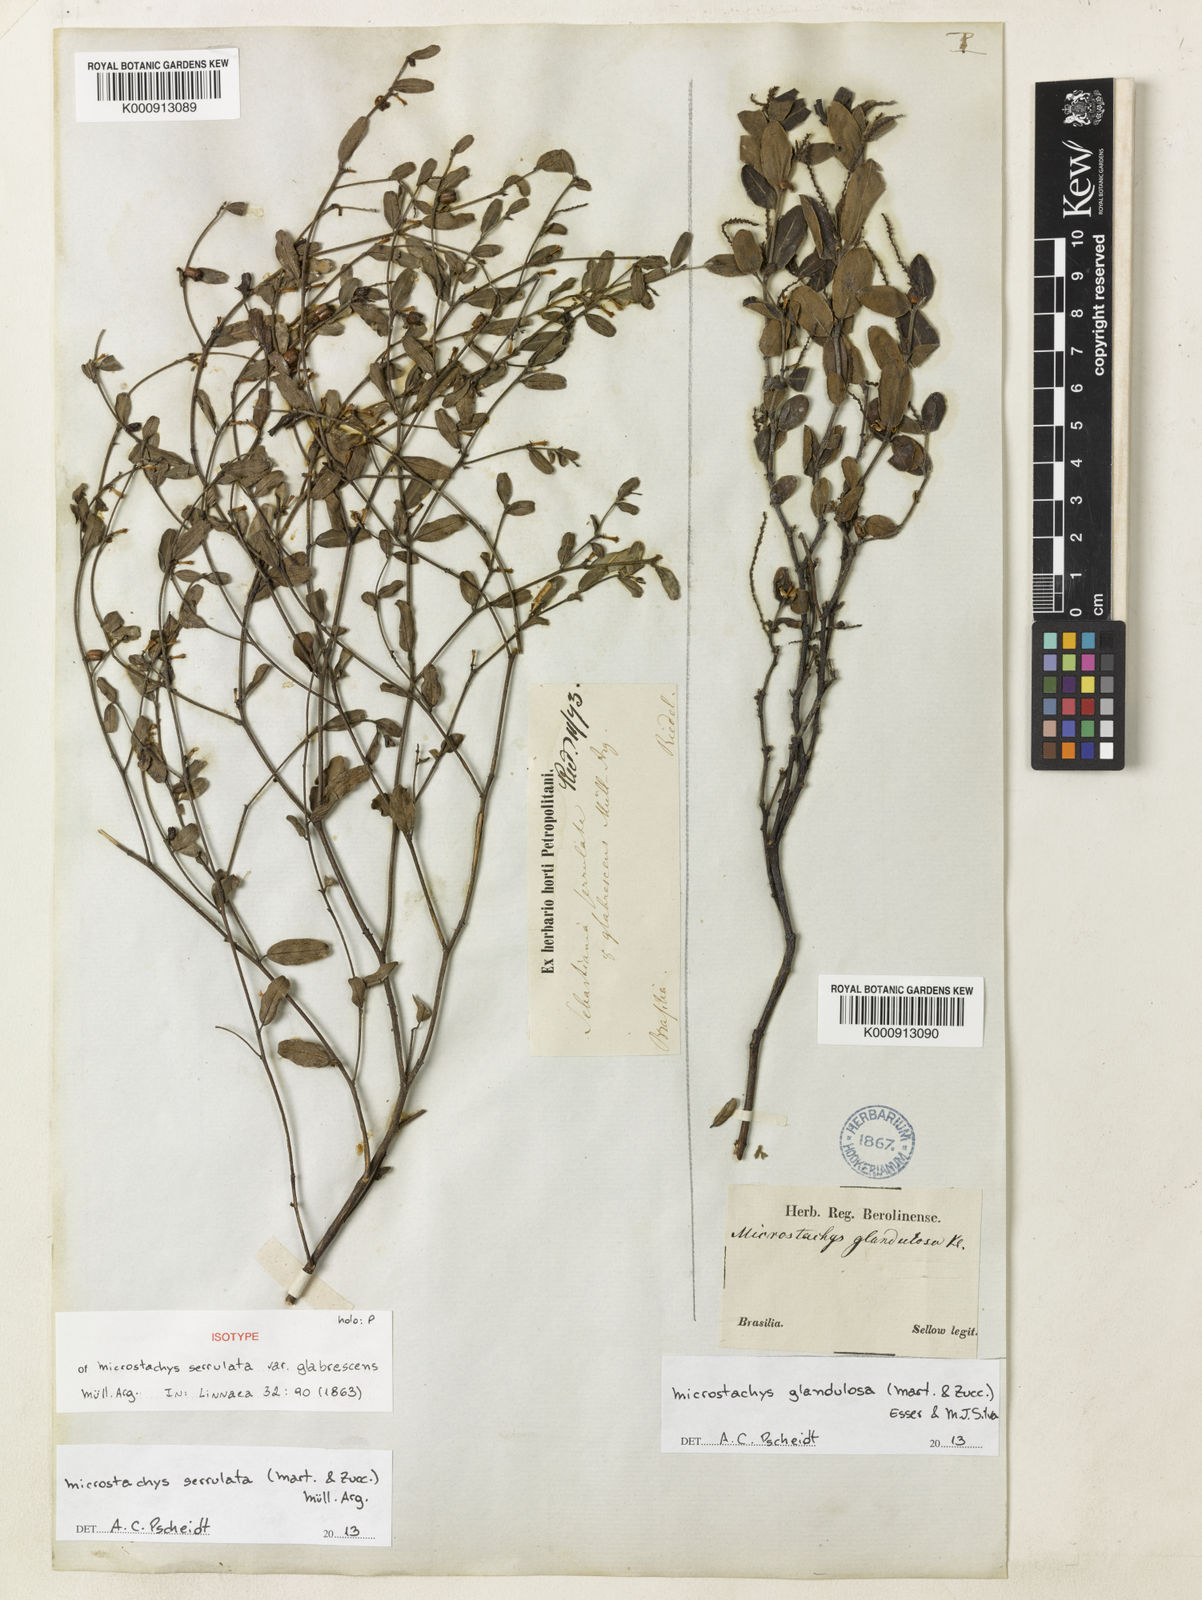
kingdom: Plantae
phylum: Tracheophyta
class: Magnoliopsida
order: Malpighiales
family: Euphorbiaceae
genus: Microstachys
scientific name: Microstachys
